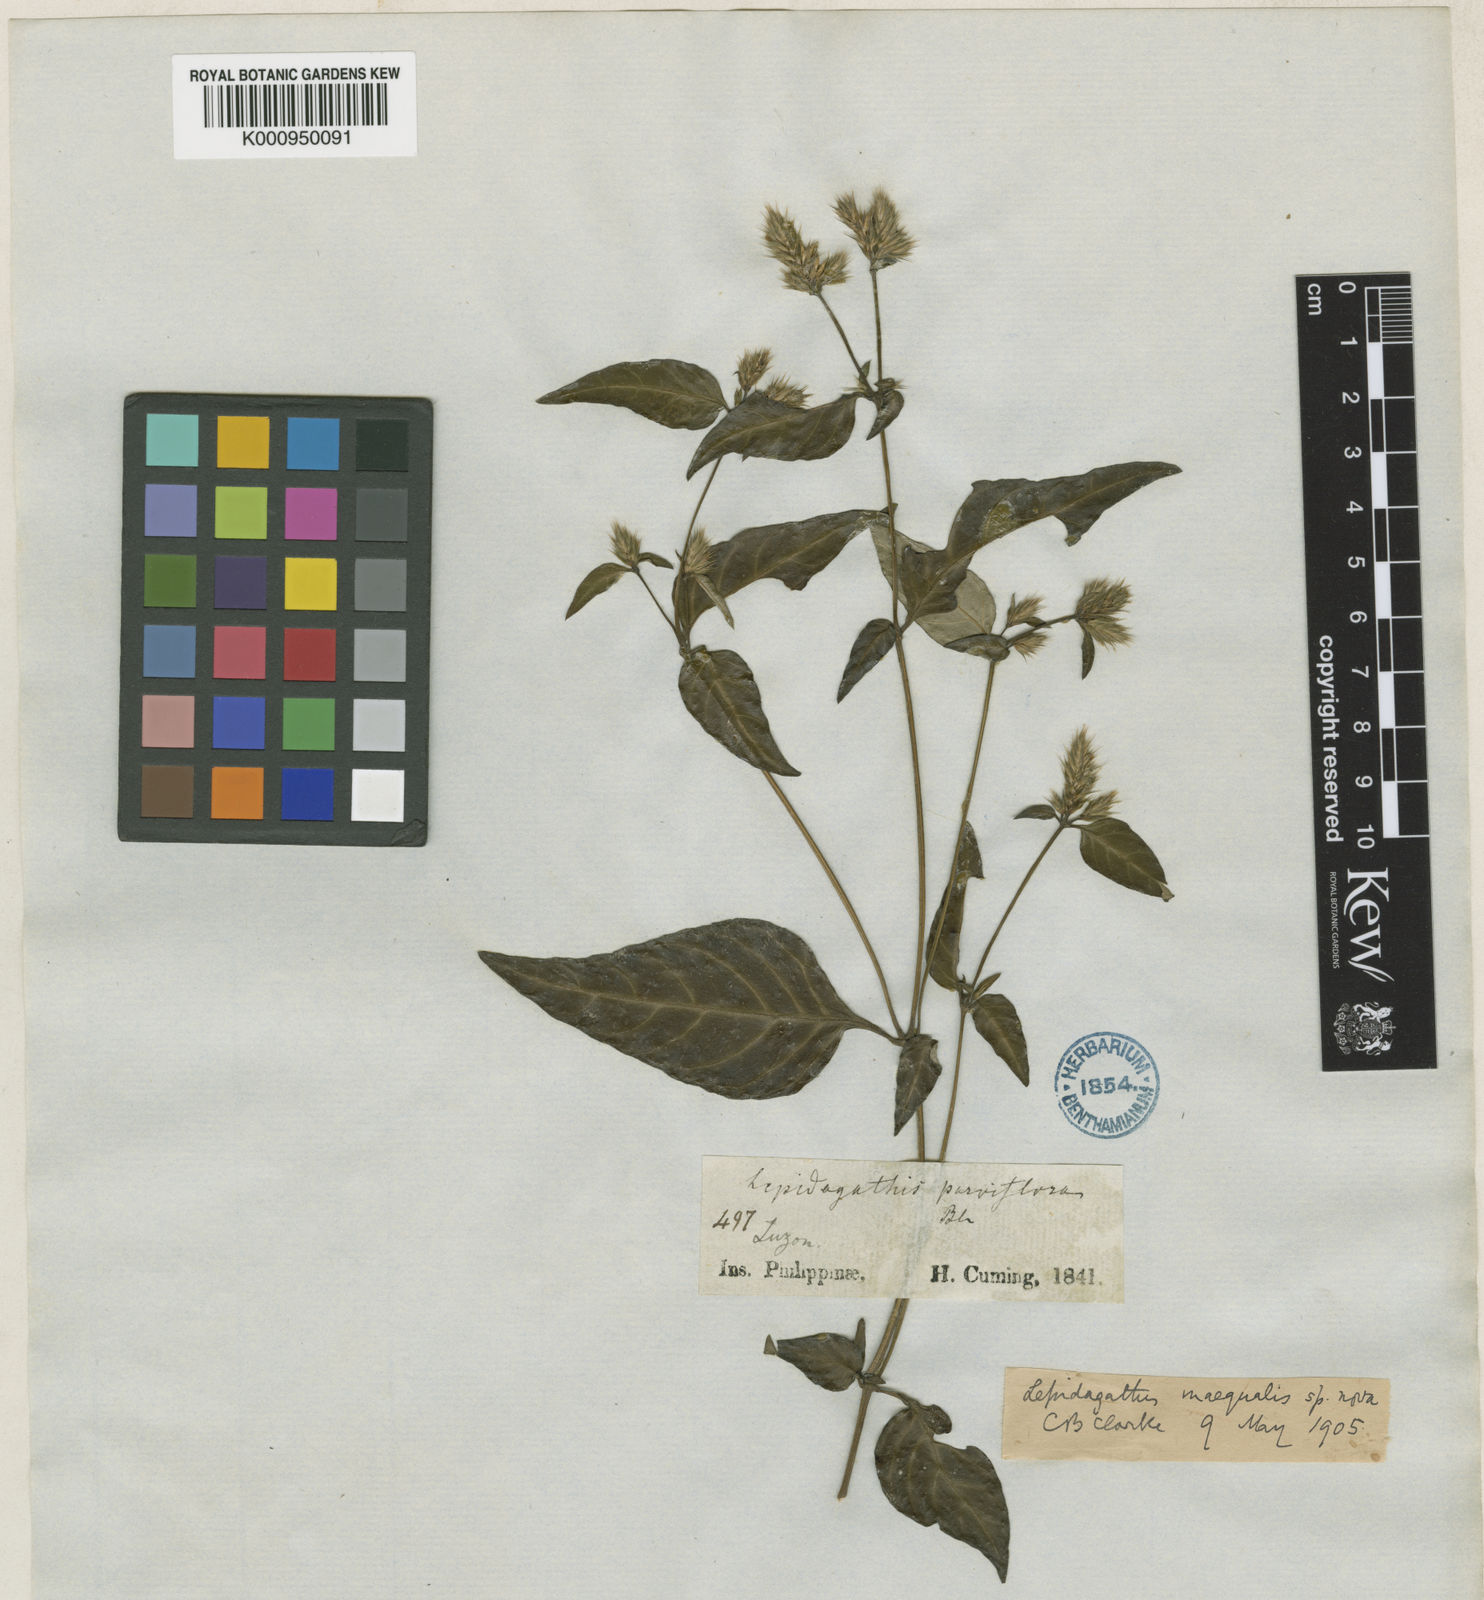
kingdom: Plantae
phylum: Tracheophyta
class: Magnoliopsida
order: Lamiales
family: Acanthaceae
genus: Lepidagathis
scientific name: Lepidagathis inaequalis
